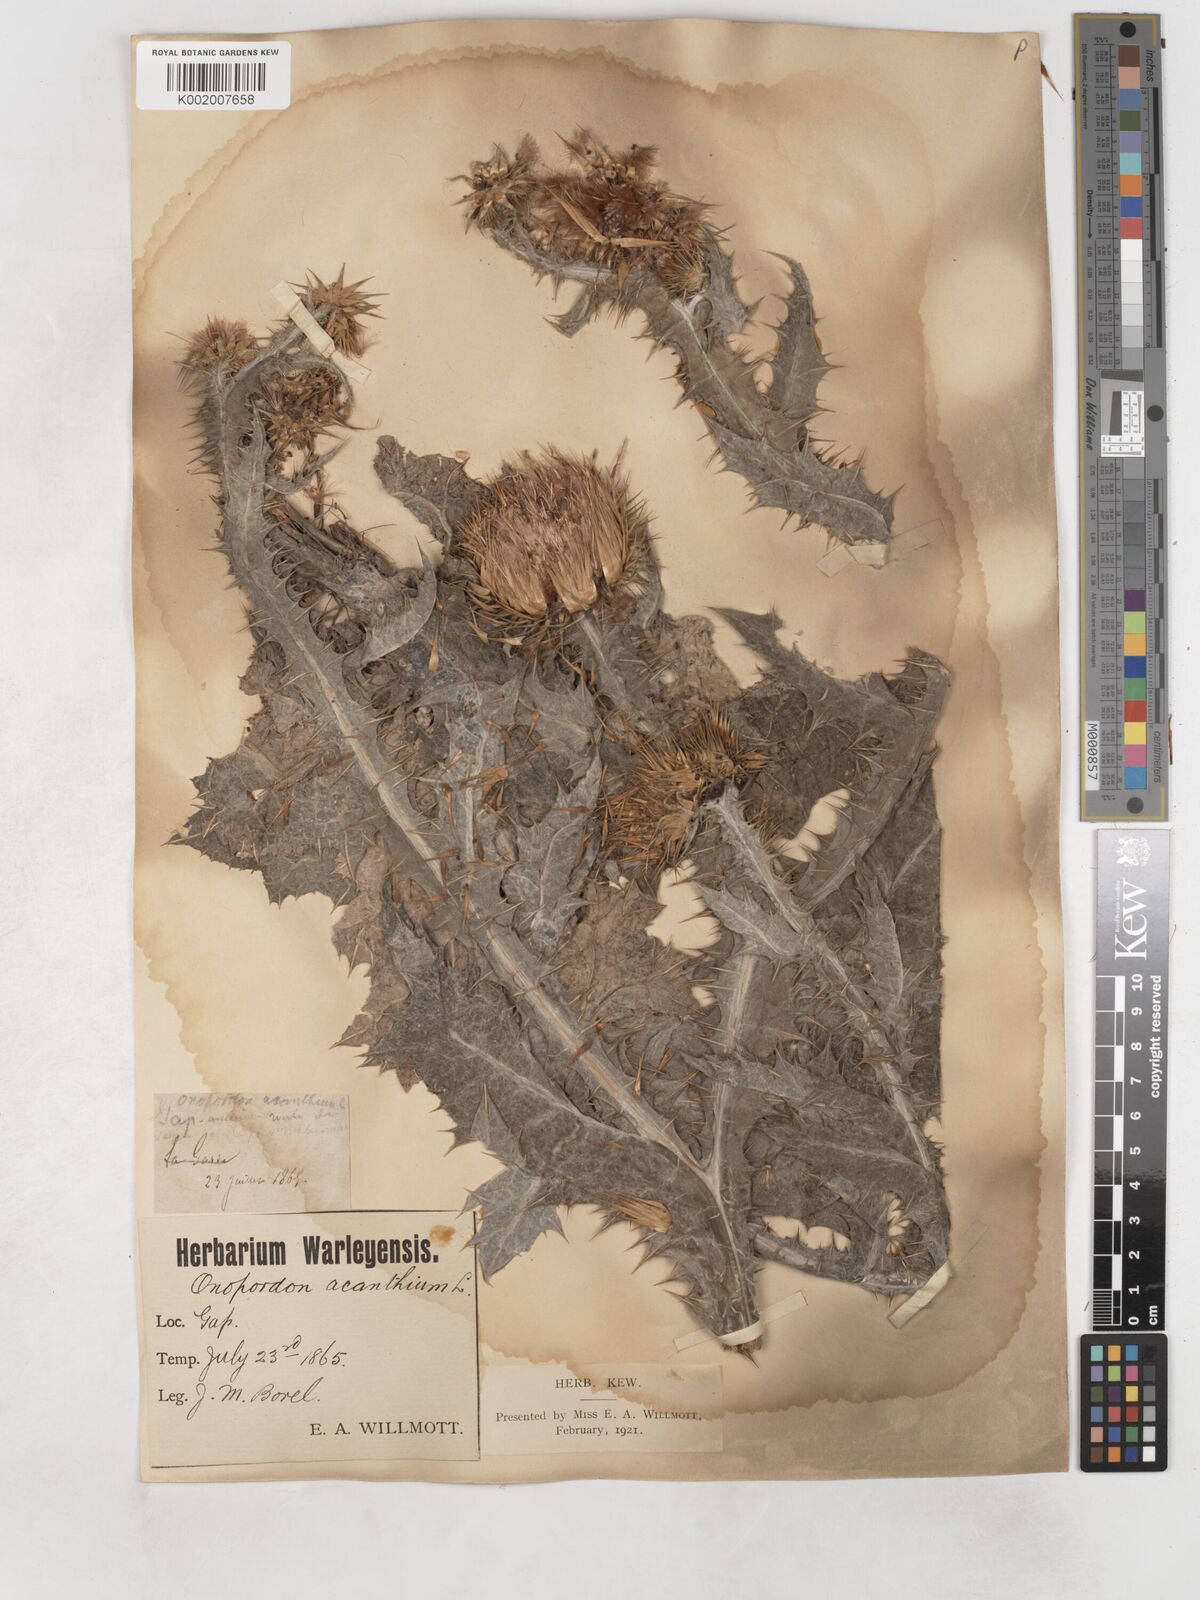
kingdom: Plantae
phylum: Tracheophyta
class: Magnoliopsida
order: Asterales
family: Asteraceae
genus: Onopordum
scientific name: Onopordum acanthium
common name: Scotch thistle
